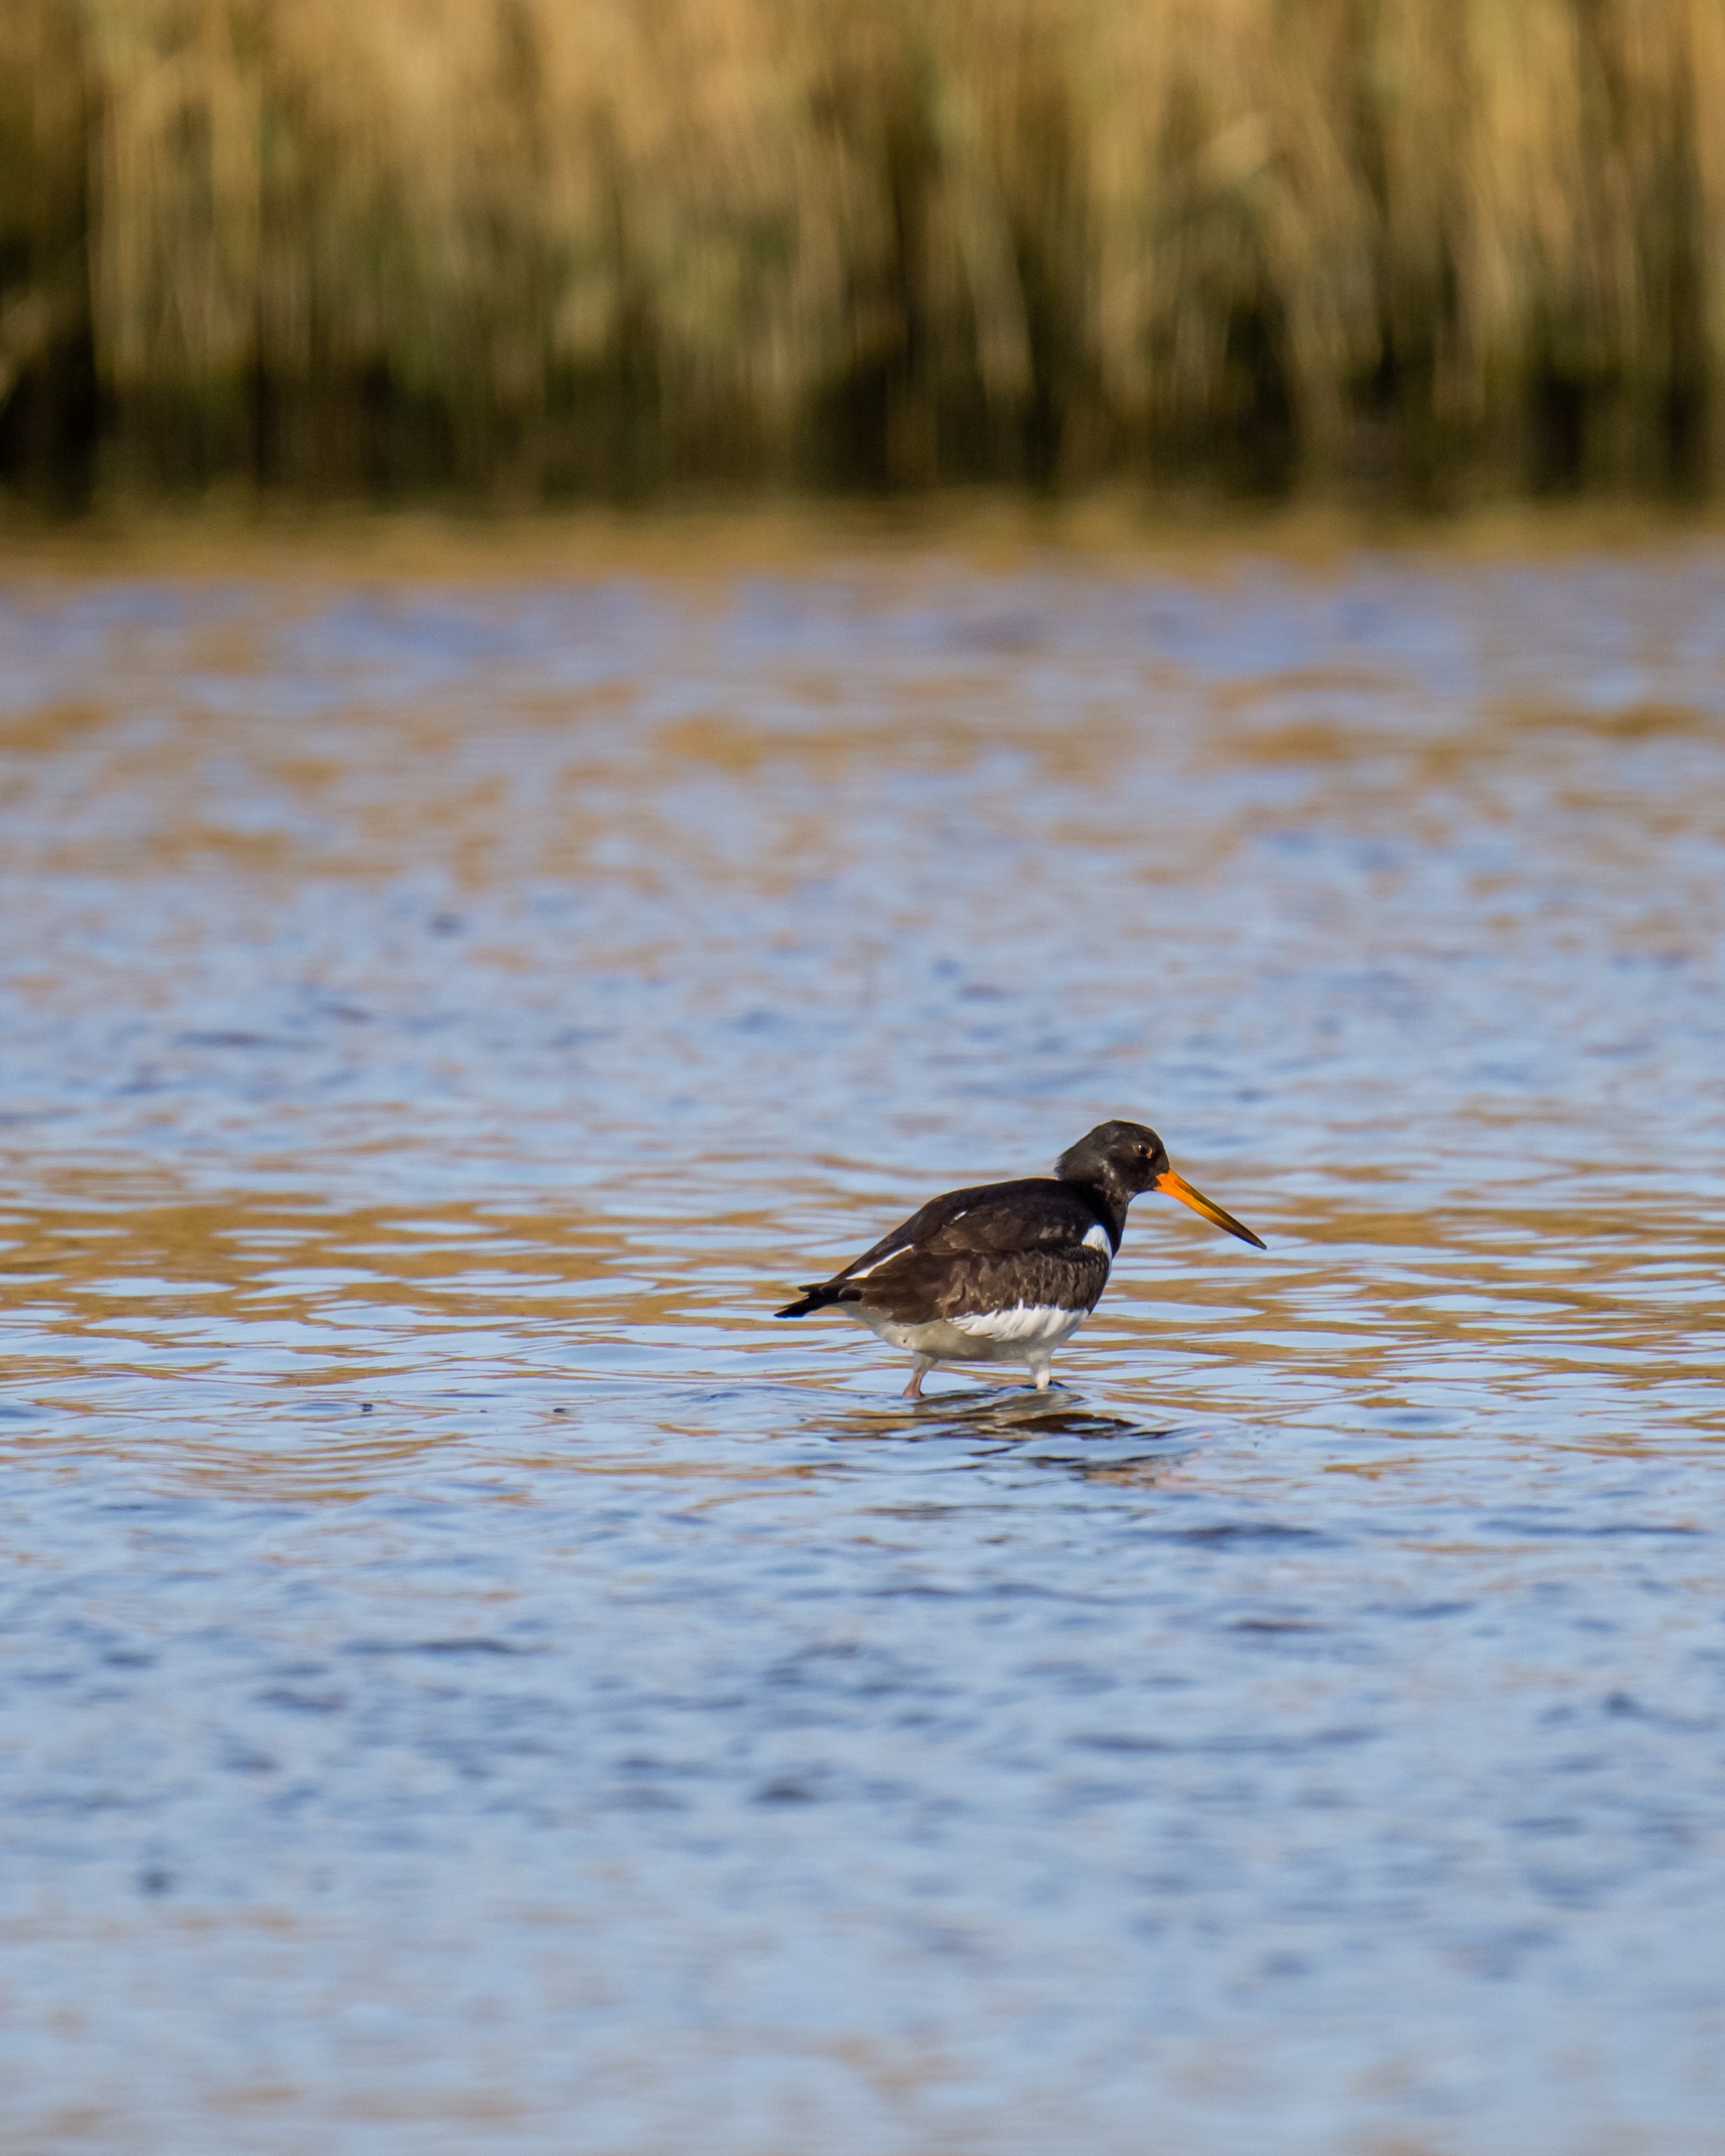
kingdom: Animalia
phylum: Chordata
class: Aves
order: Charadriiformes
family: Haematopodidae
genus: Haematopus
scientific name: Haematopus ostralegus
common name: Strandskade
